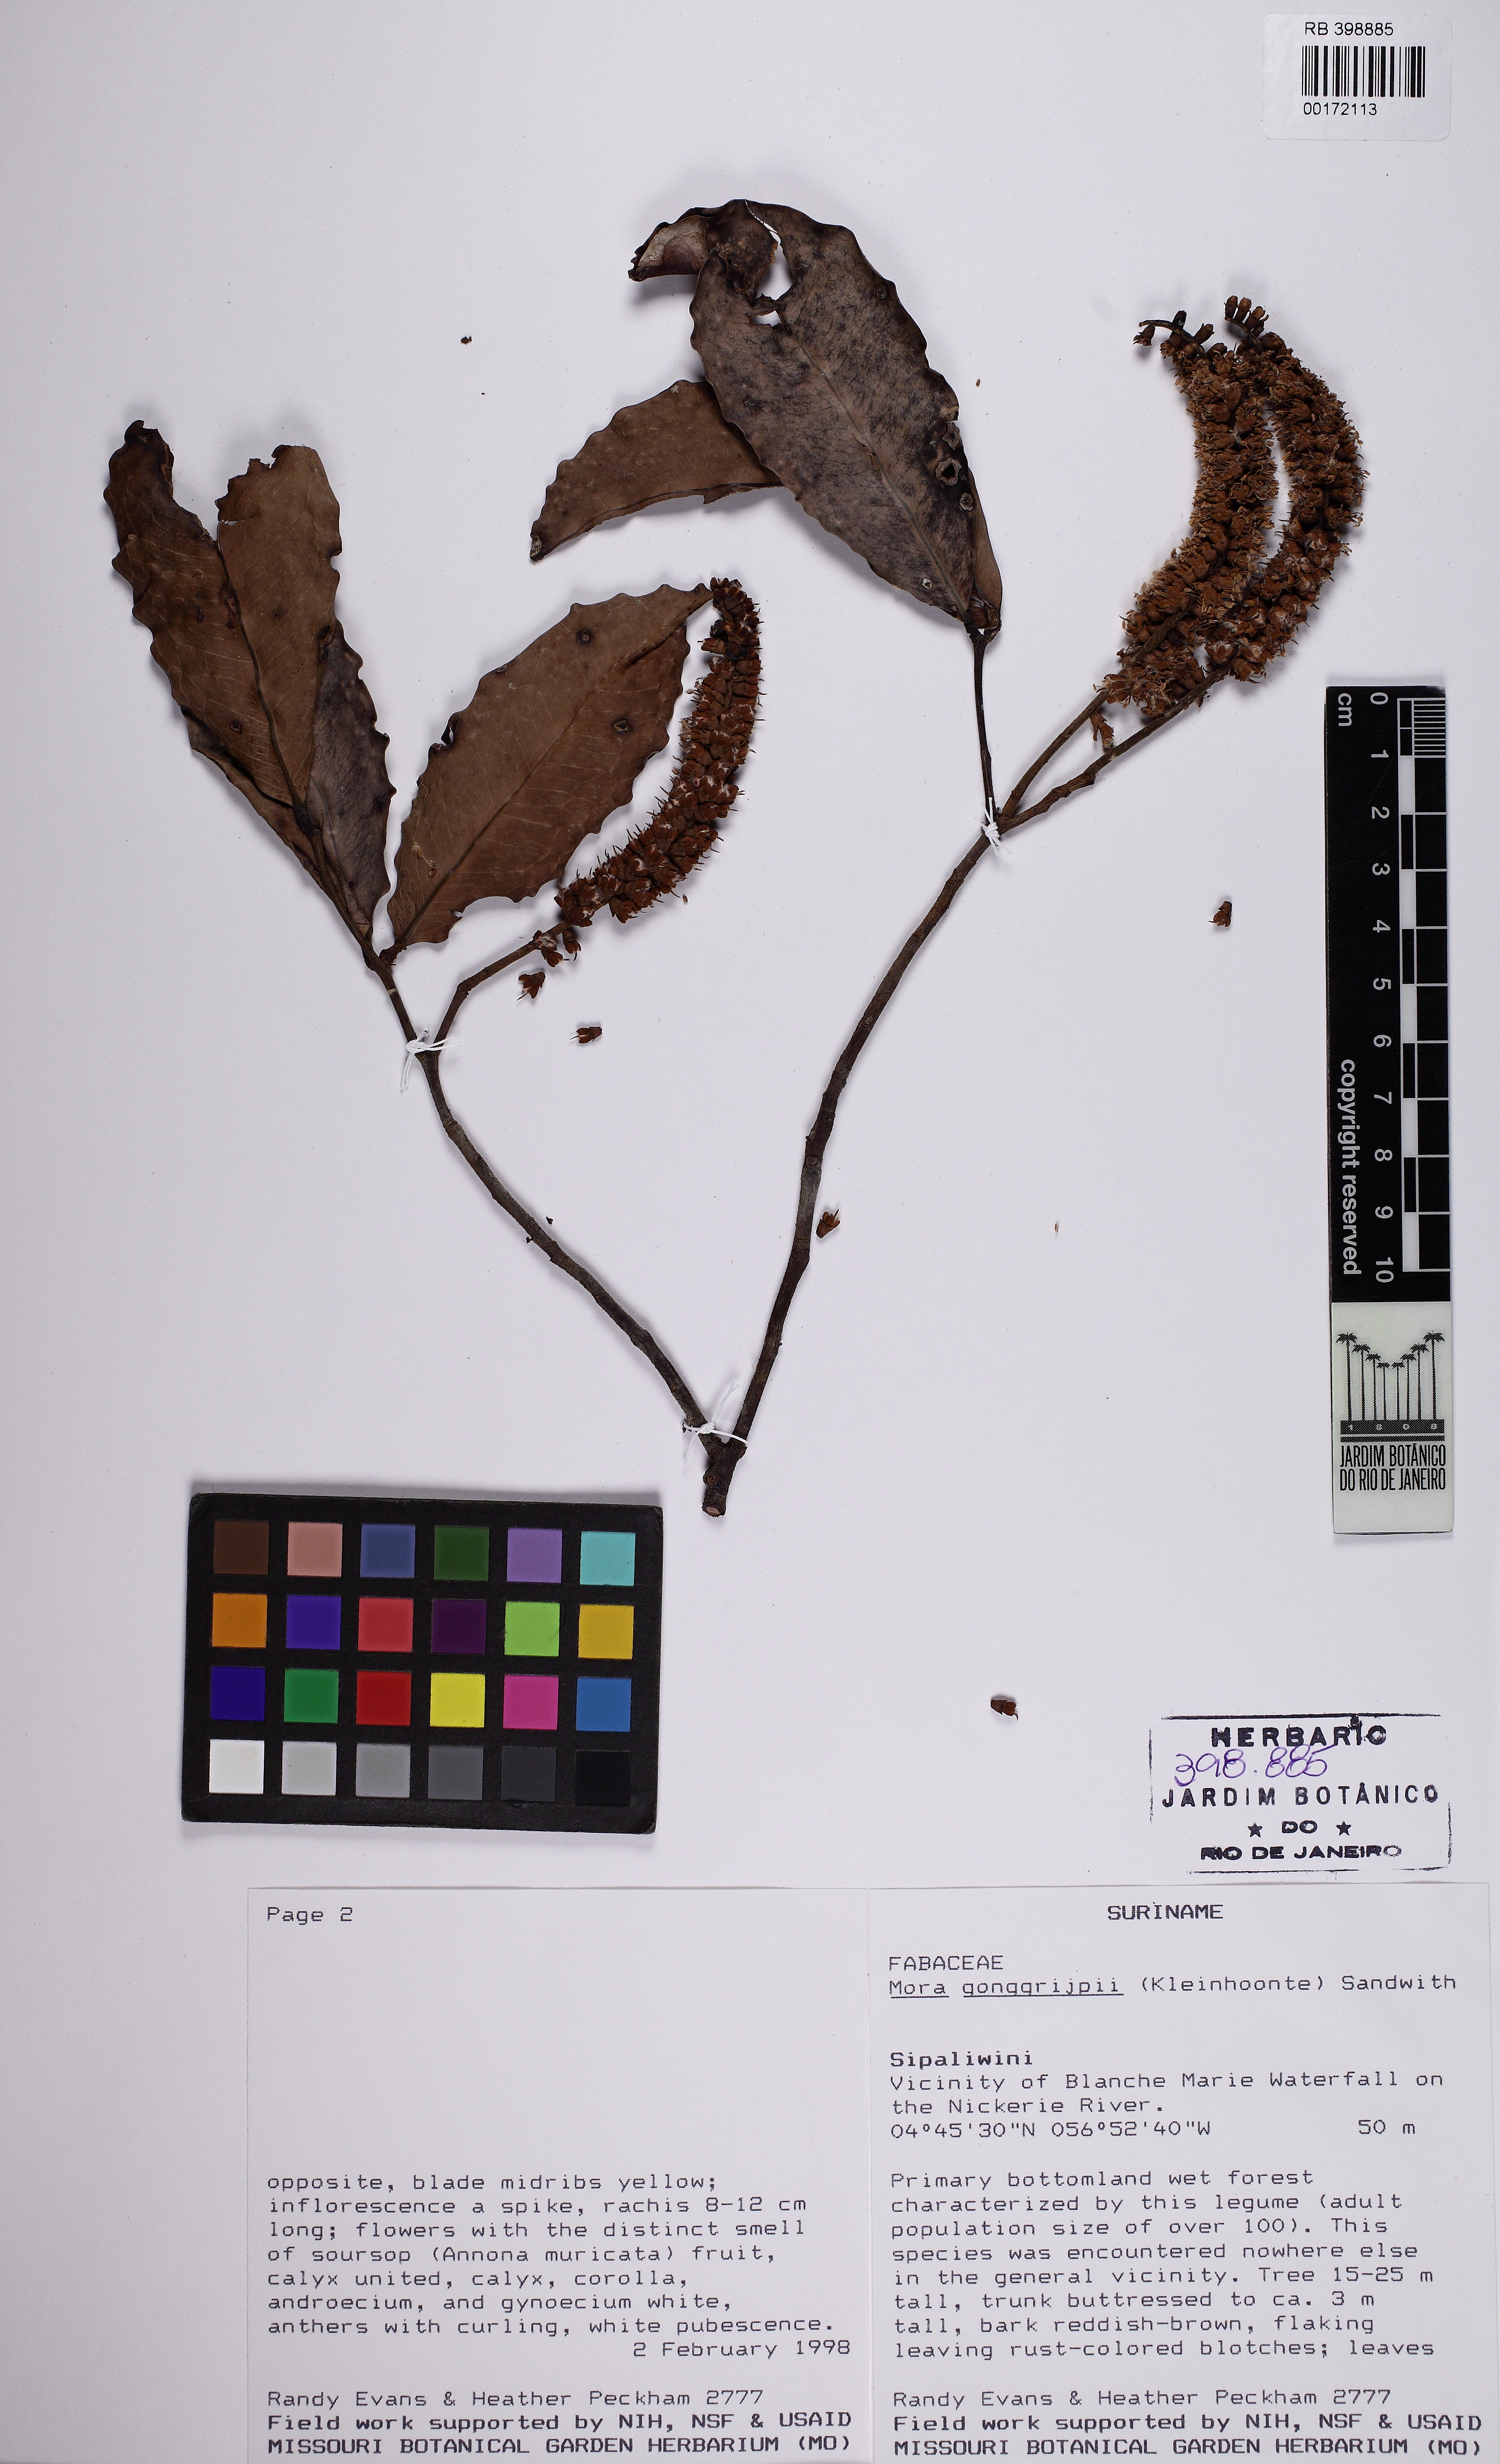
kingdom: Plantae
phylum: Tracheophyta
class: Magnoliopsida
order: Fabales
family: Fabaceae
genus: Mora
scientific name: Mora gonggrijpii
